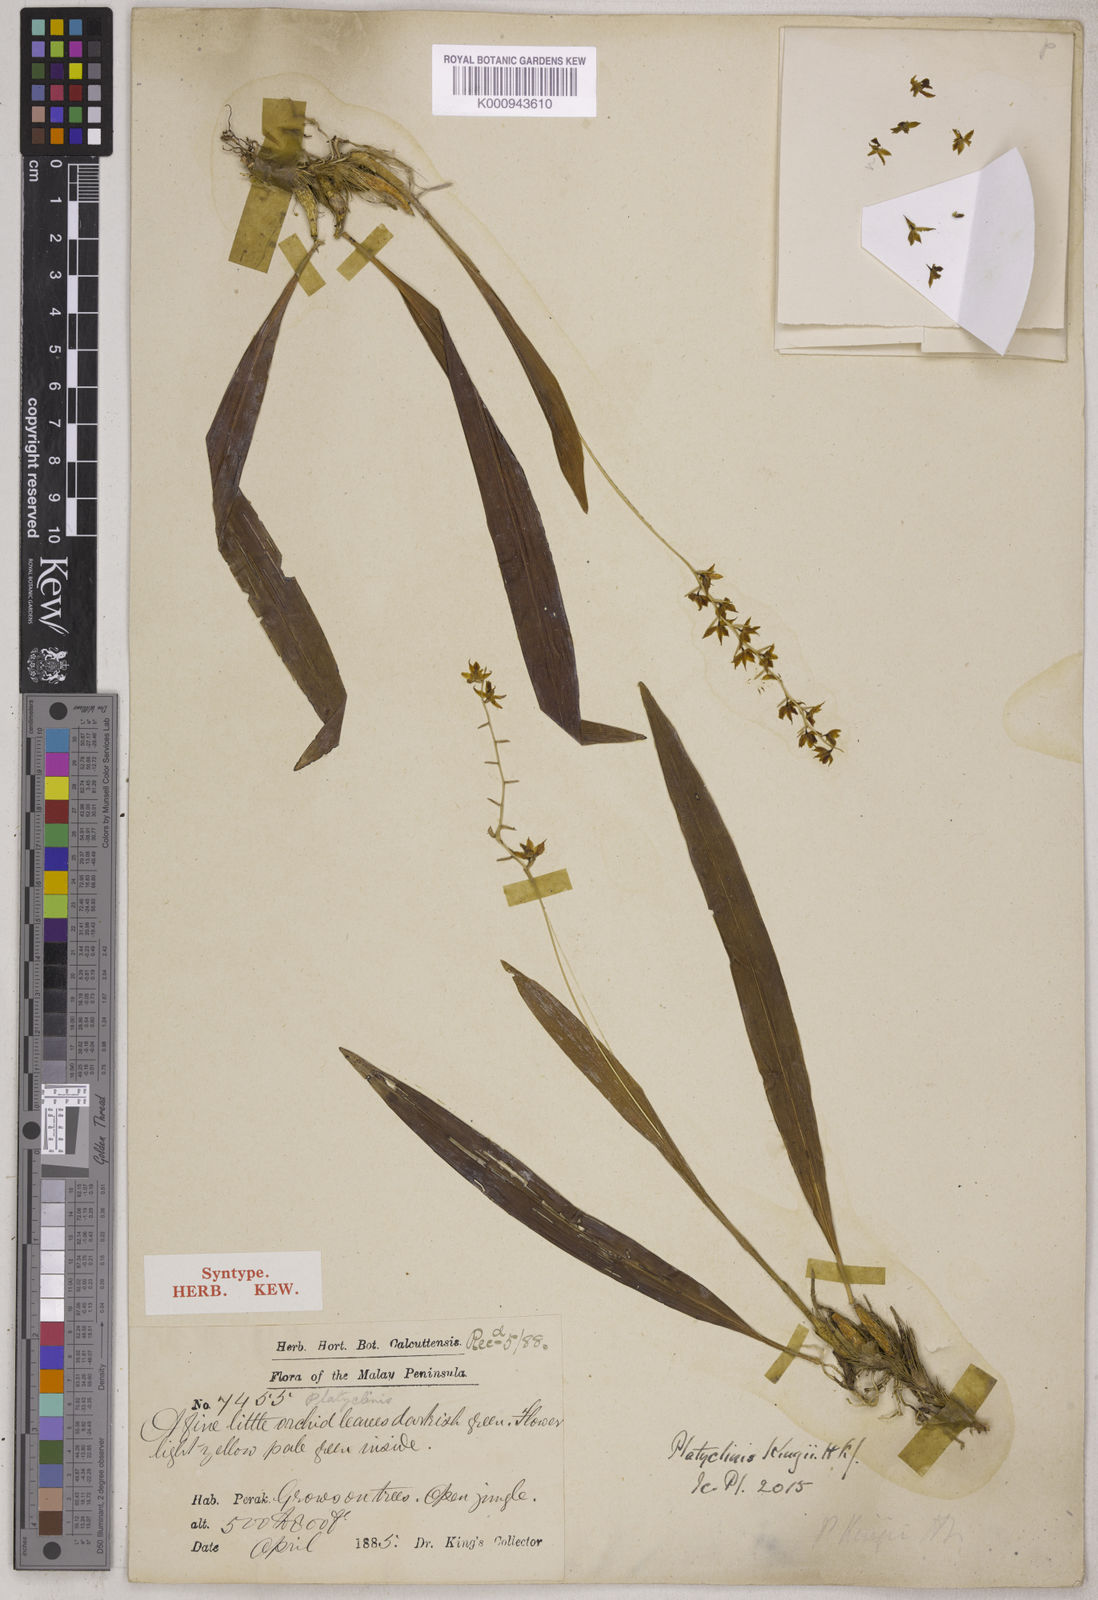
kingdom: Plantae
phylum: Tracheophyta
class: Liliopsida
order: Asparagales
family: Orchidaceae
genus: Coelogyne
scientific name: Coelogyne bigibbosa
